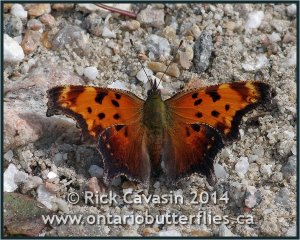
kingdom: Animalia
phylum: Arthropoda
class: Insecta
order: Lepidoptera
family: Nymphalidae
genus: Polygonia
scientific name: Polygonia progne
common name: Gray Comma
